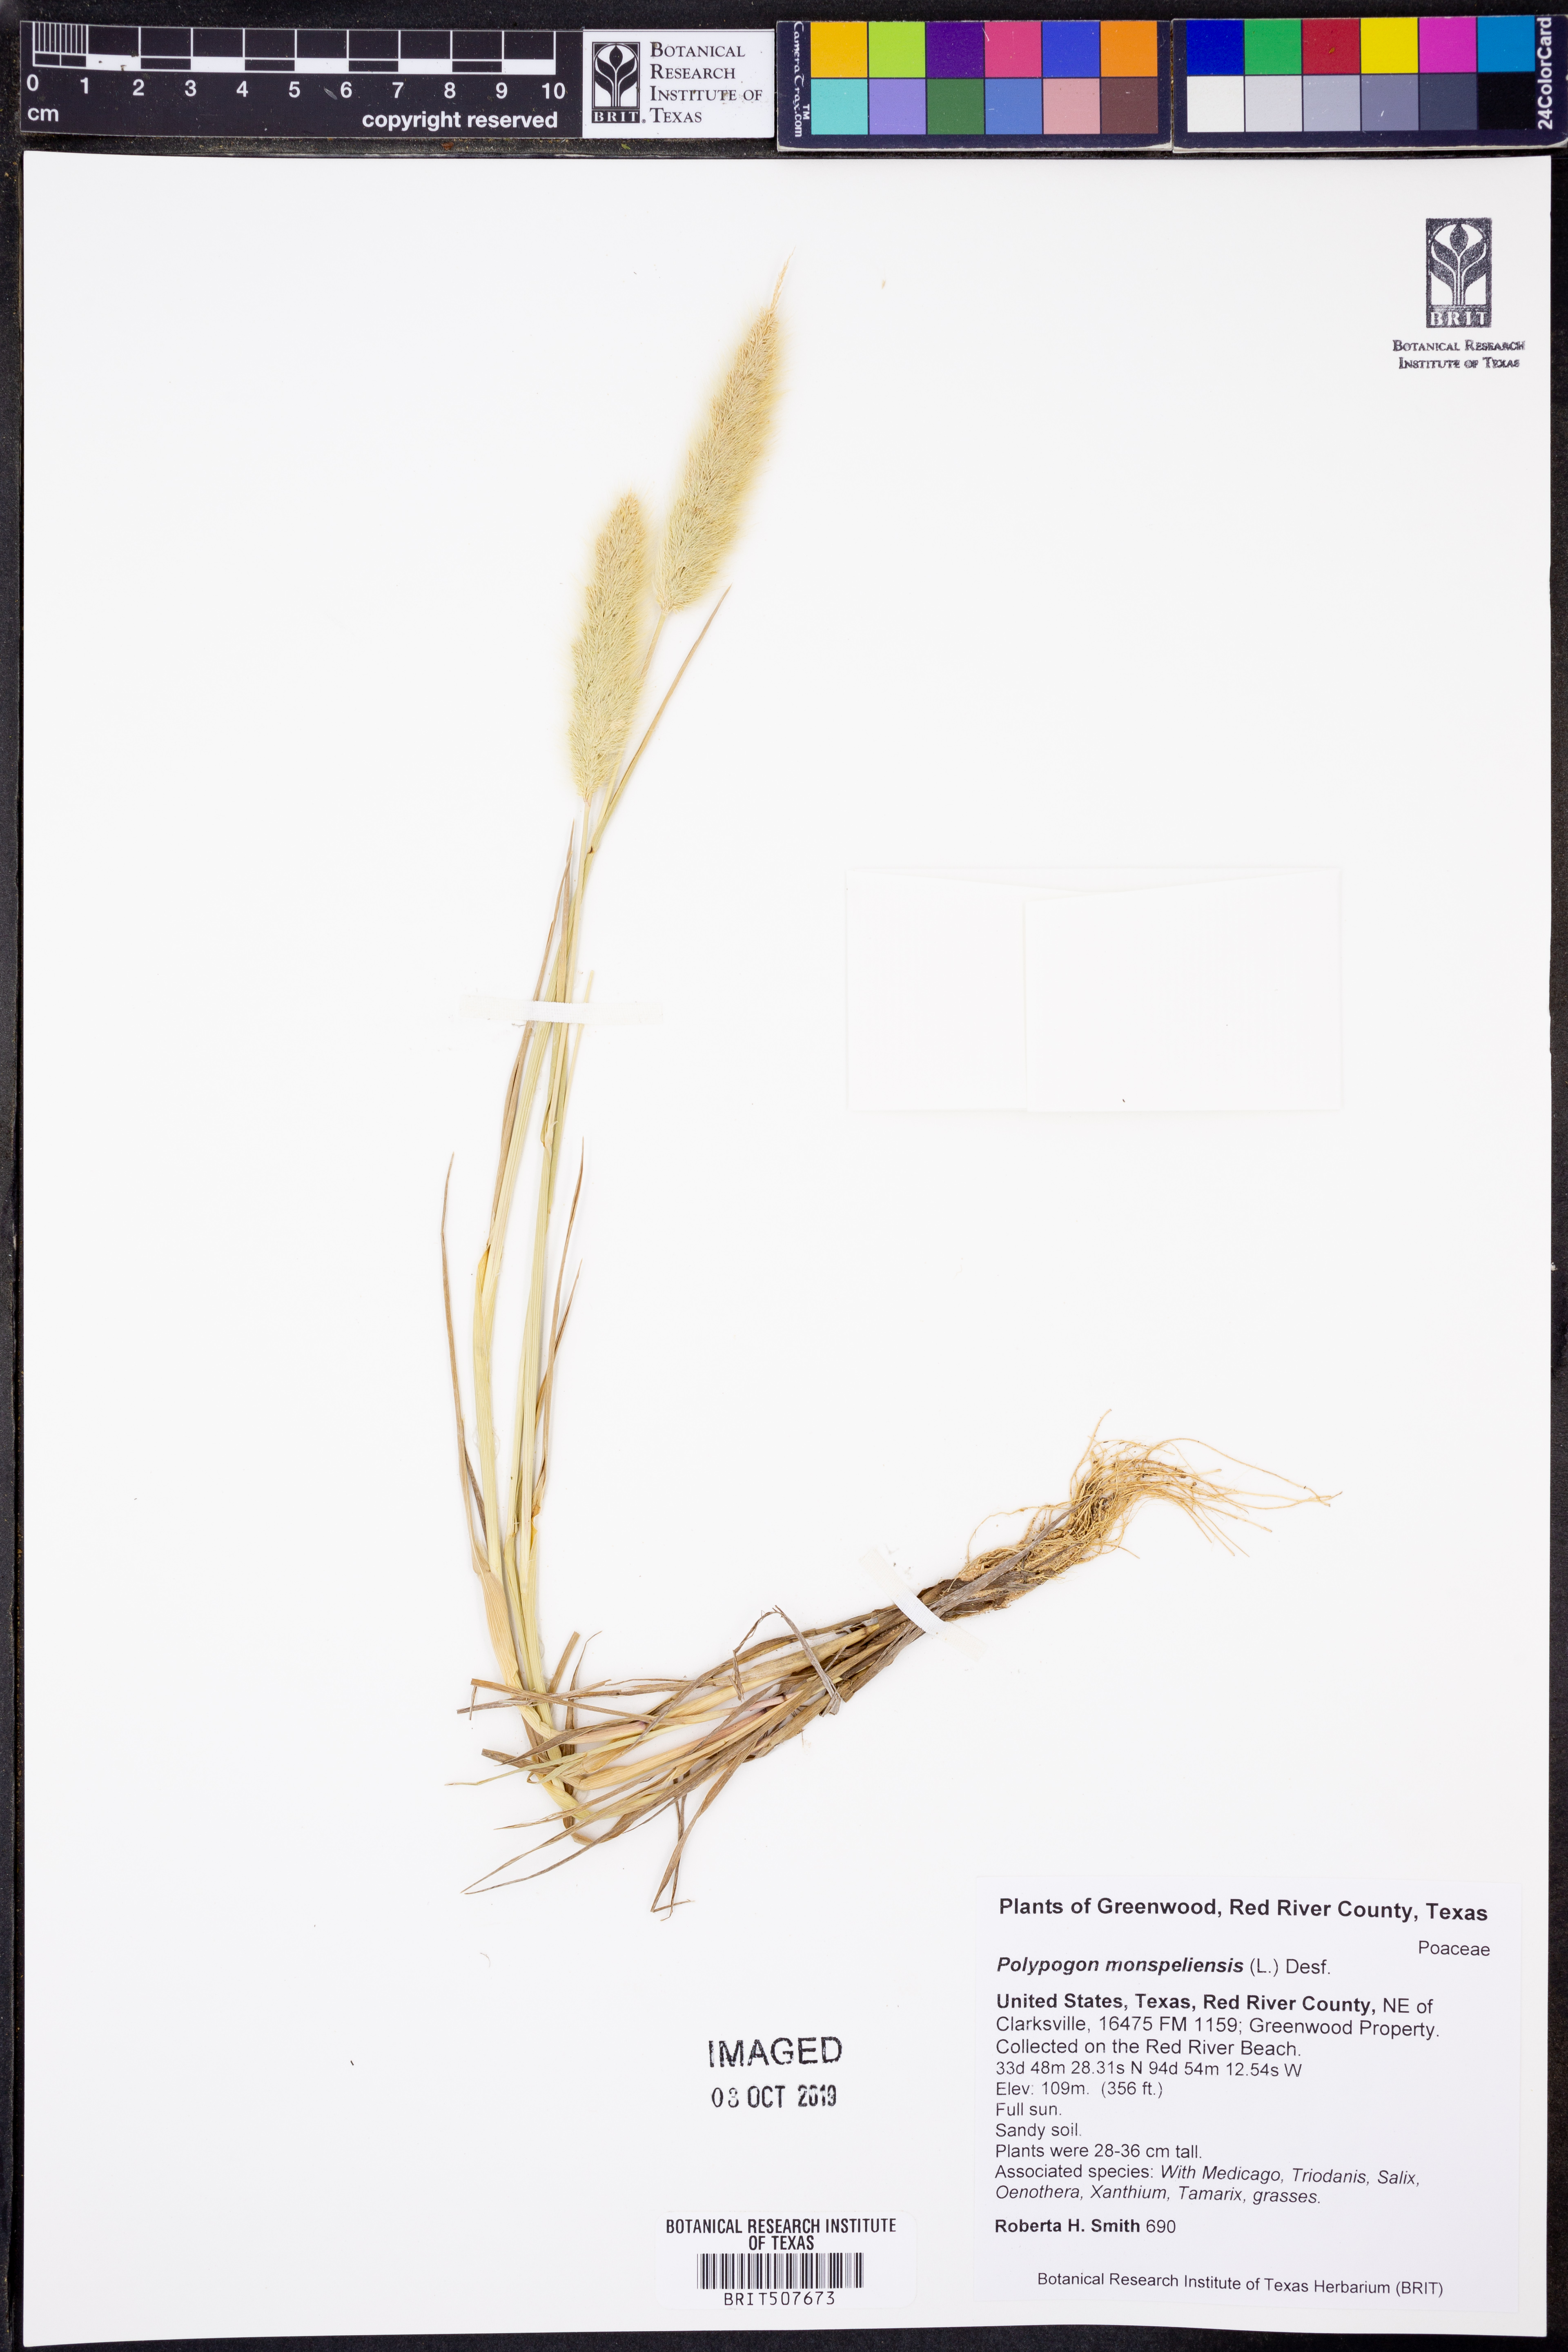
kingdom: Plantae
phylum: Tracheophyta
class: Liliopsida
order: Poales
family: Poaceae
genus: Polypogon
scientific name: Polypogon monspeliensis
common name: Annual rabbitsfoot grass
